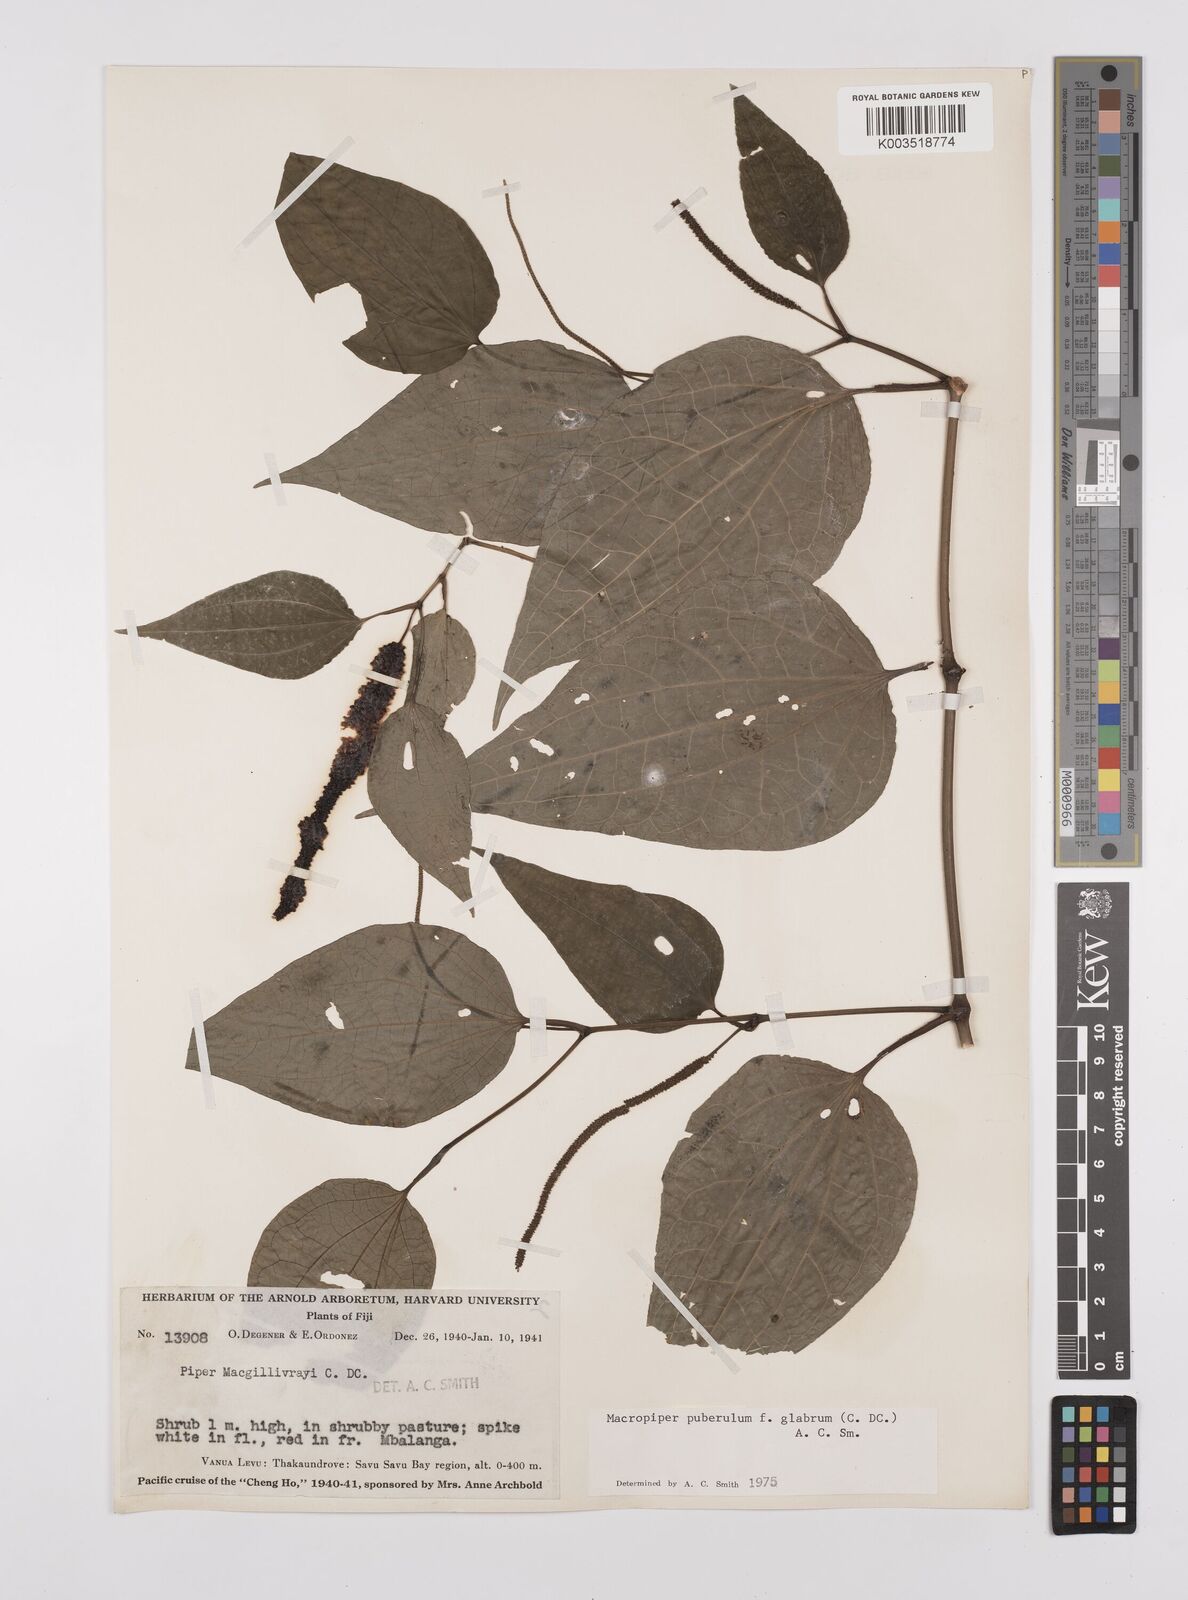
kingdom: Plantae
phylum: Tracheophyta
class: Magnoliopsida
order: Piperales
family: Piperaceae
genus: Macropiper
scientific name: Macropiper puberulum
